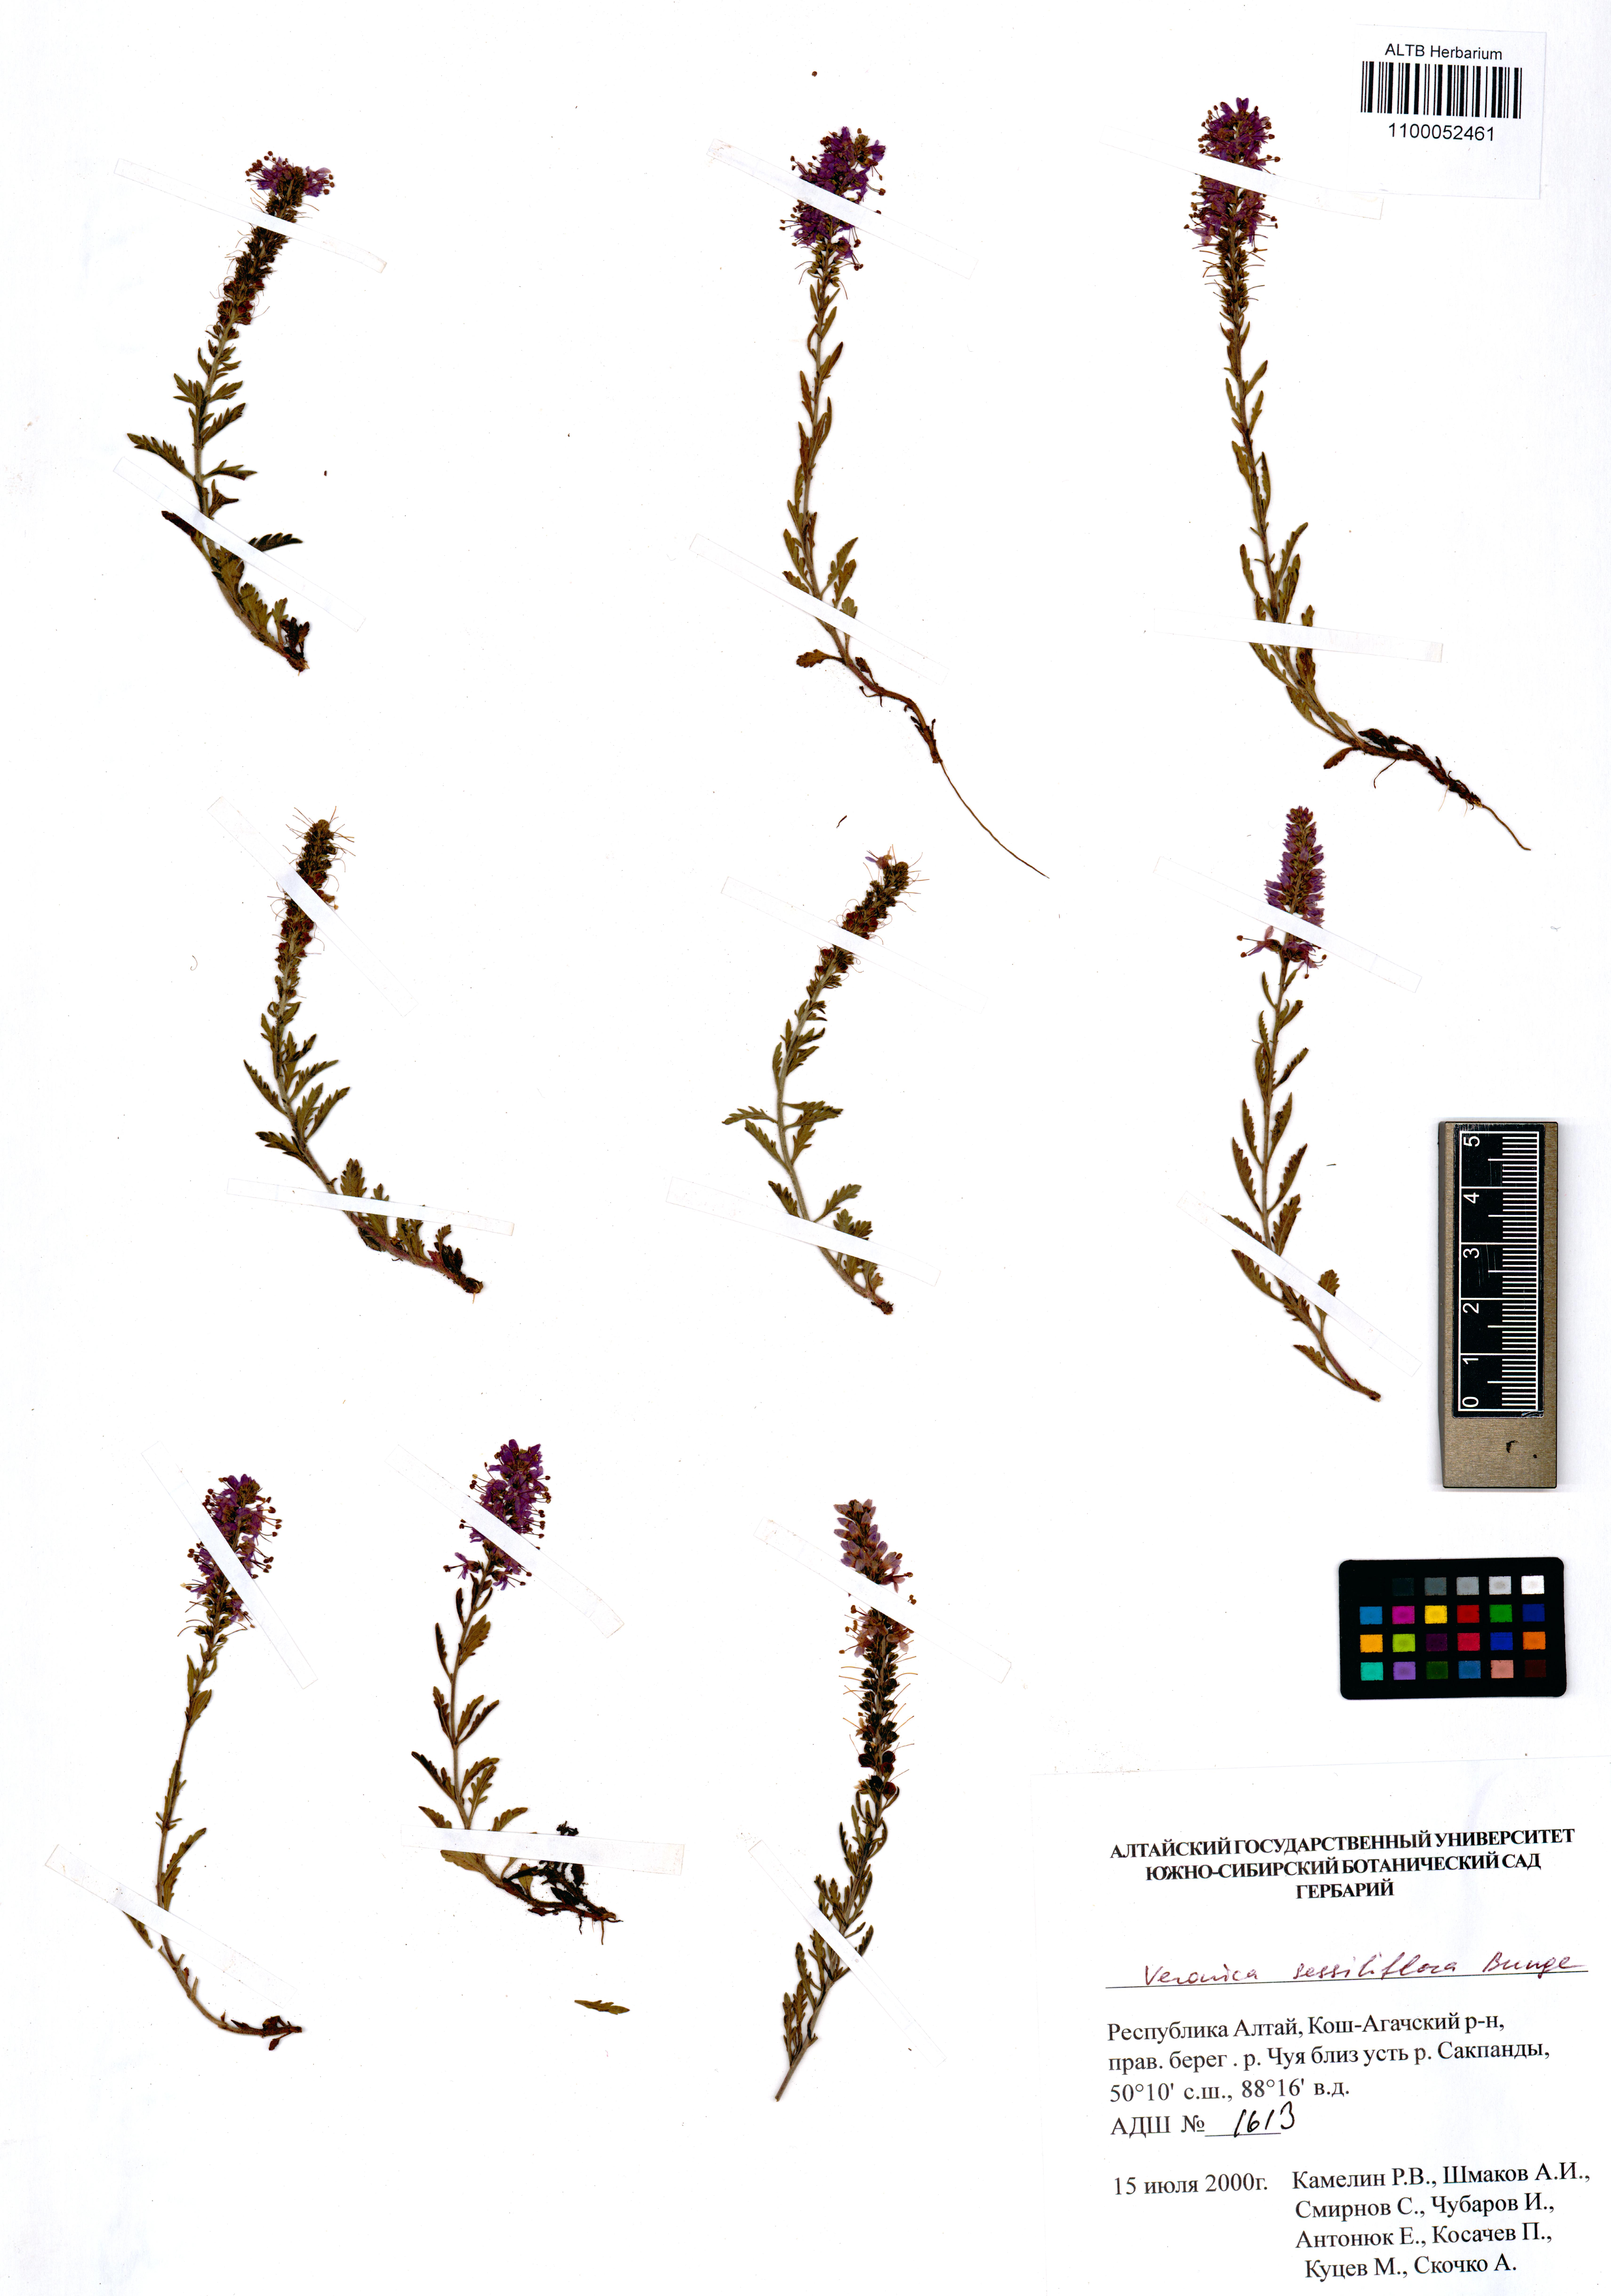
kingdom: Plantae
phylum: Tracheophyta
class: Magnoliopsida
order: Lamiales
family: Plantaginaceae
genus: Veronica
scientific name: Veronica sessiliflora
